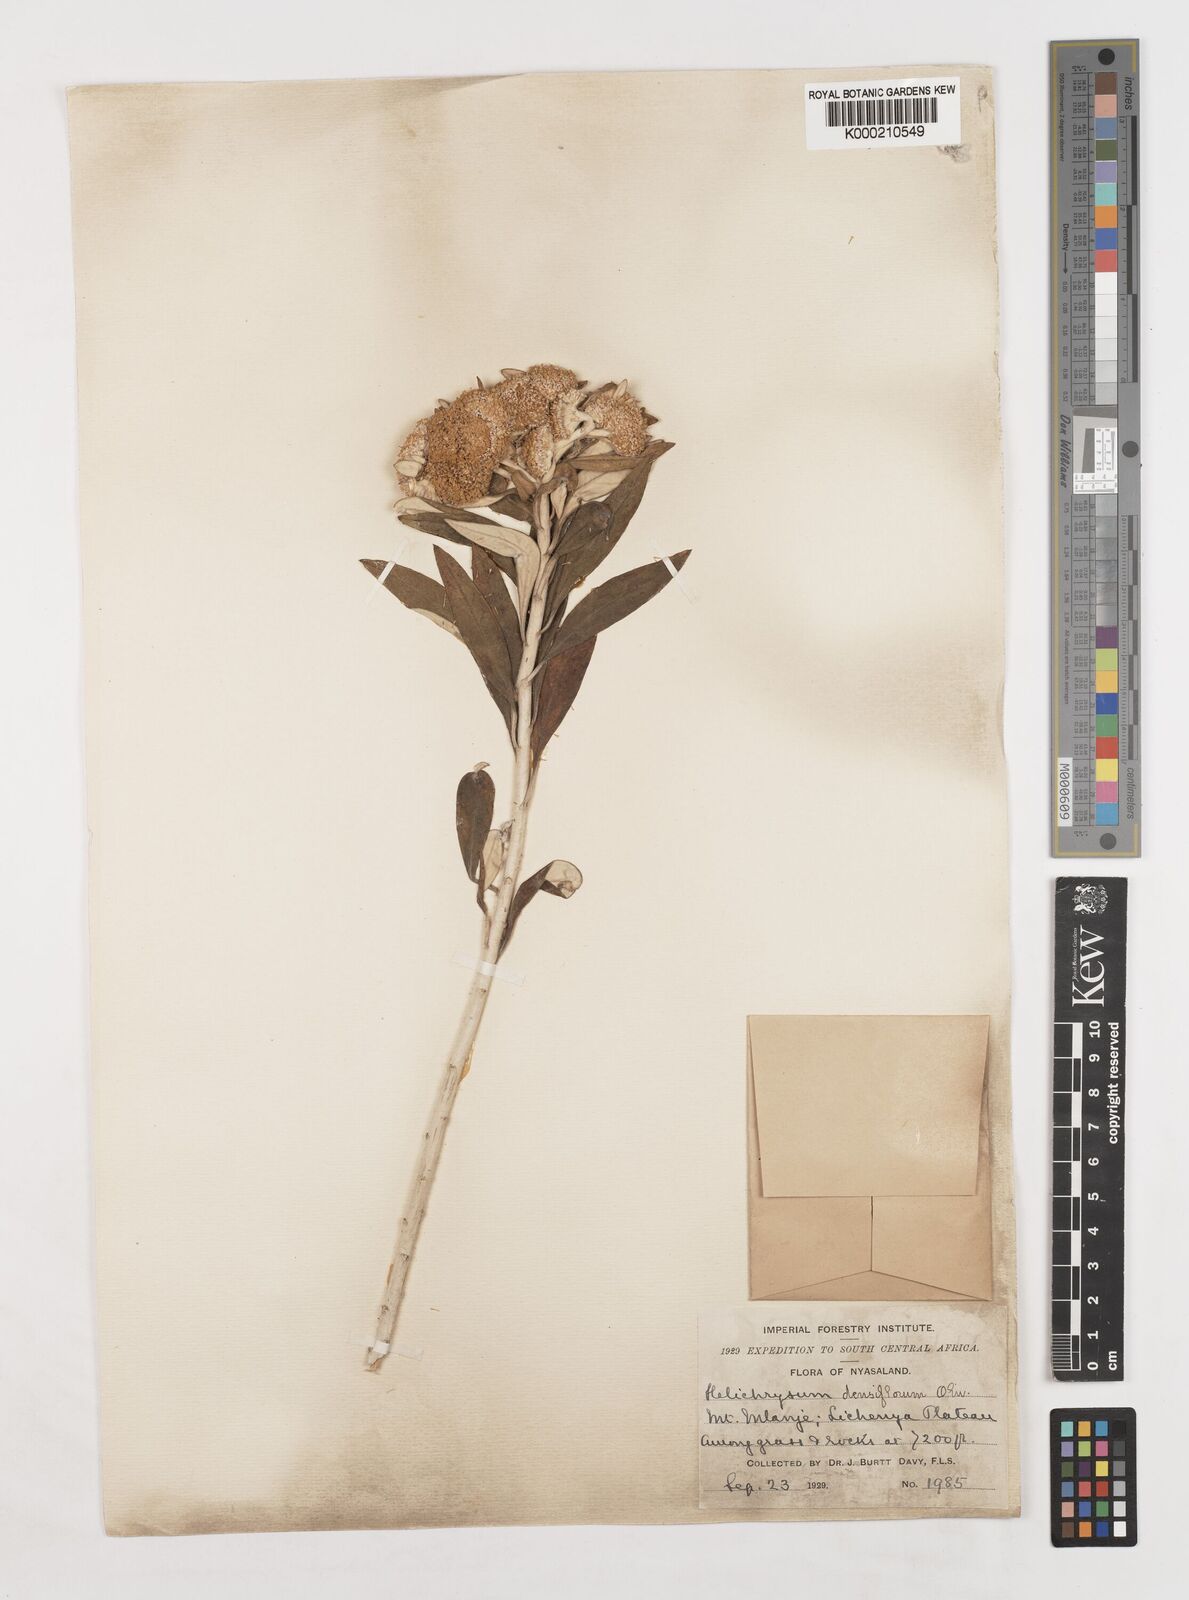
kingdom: Plantae
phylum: Tracheophyta
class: Magnoliopsida
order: Asterales
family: Asteraceae
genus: Helichrysum
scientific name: Helichrysum densiflorum
